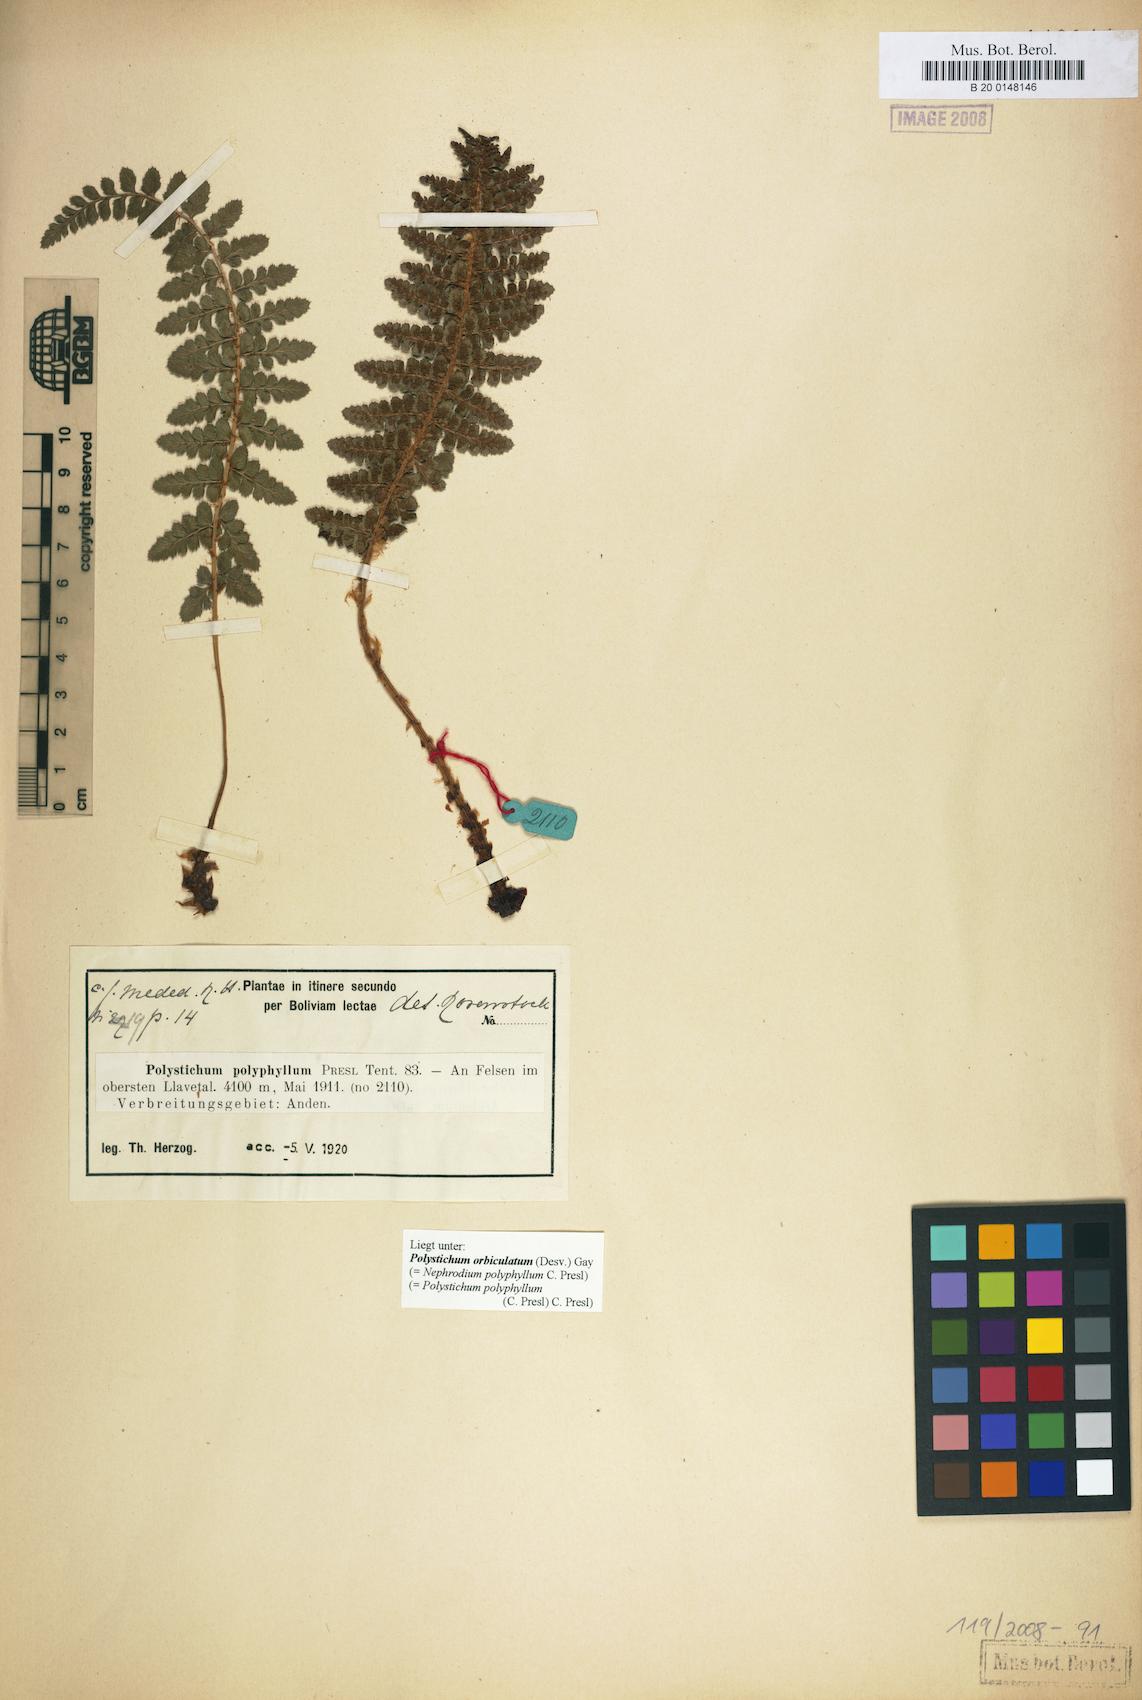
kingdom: Plantae
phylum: Tracheophyta
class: Polypodiopsida
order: Polypodiales
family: Dryopteridaceae
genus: Polystichum
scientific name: Polystichum orbiculatum
